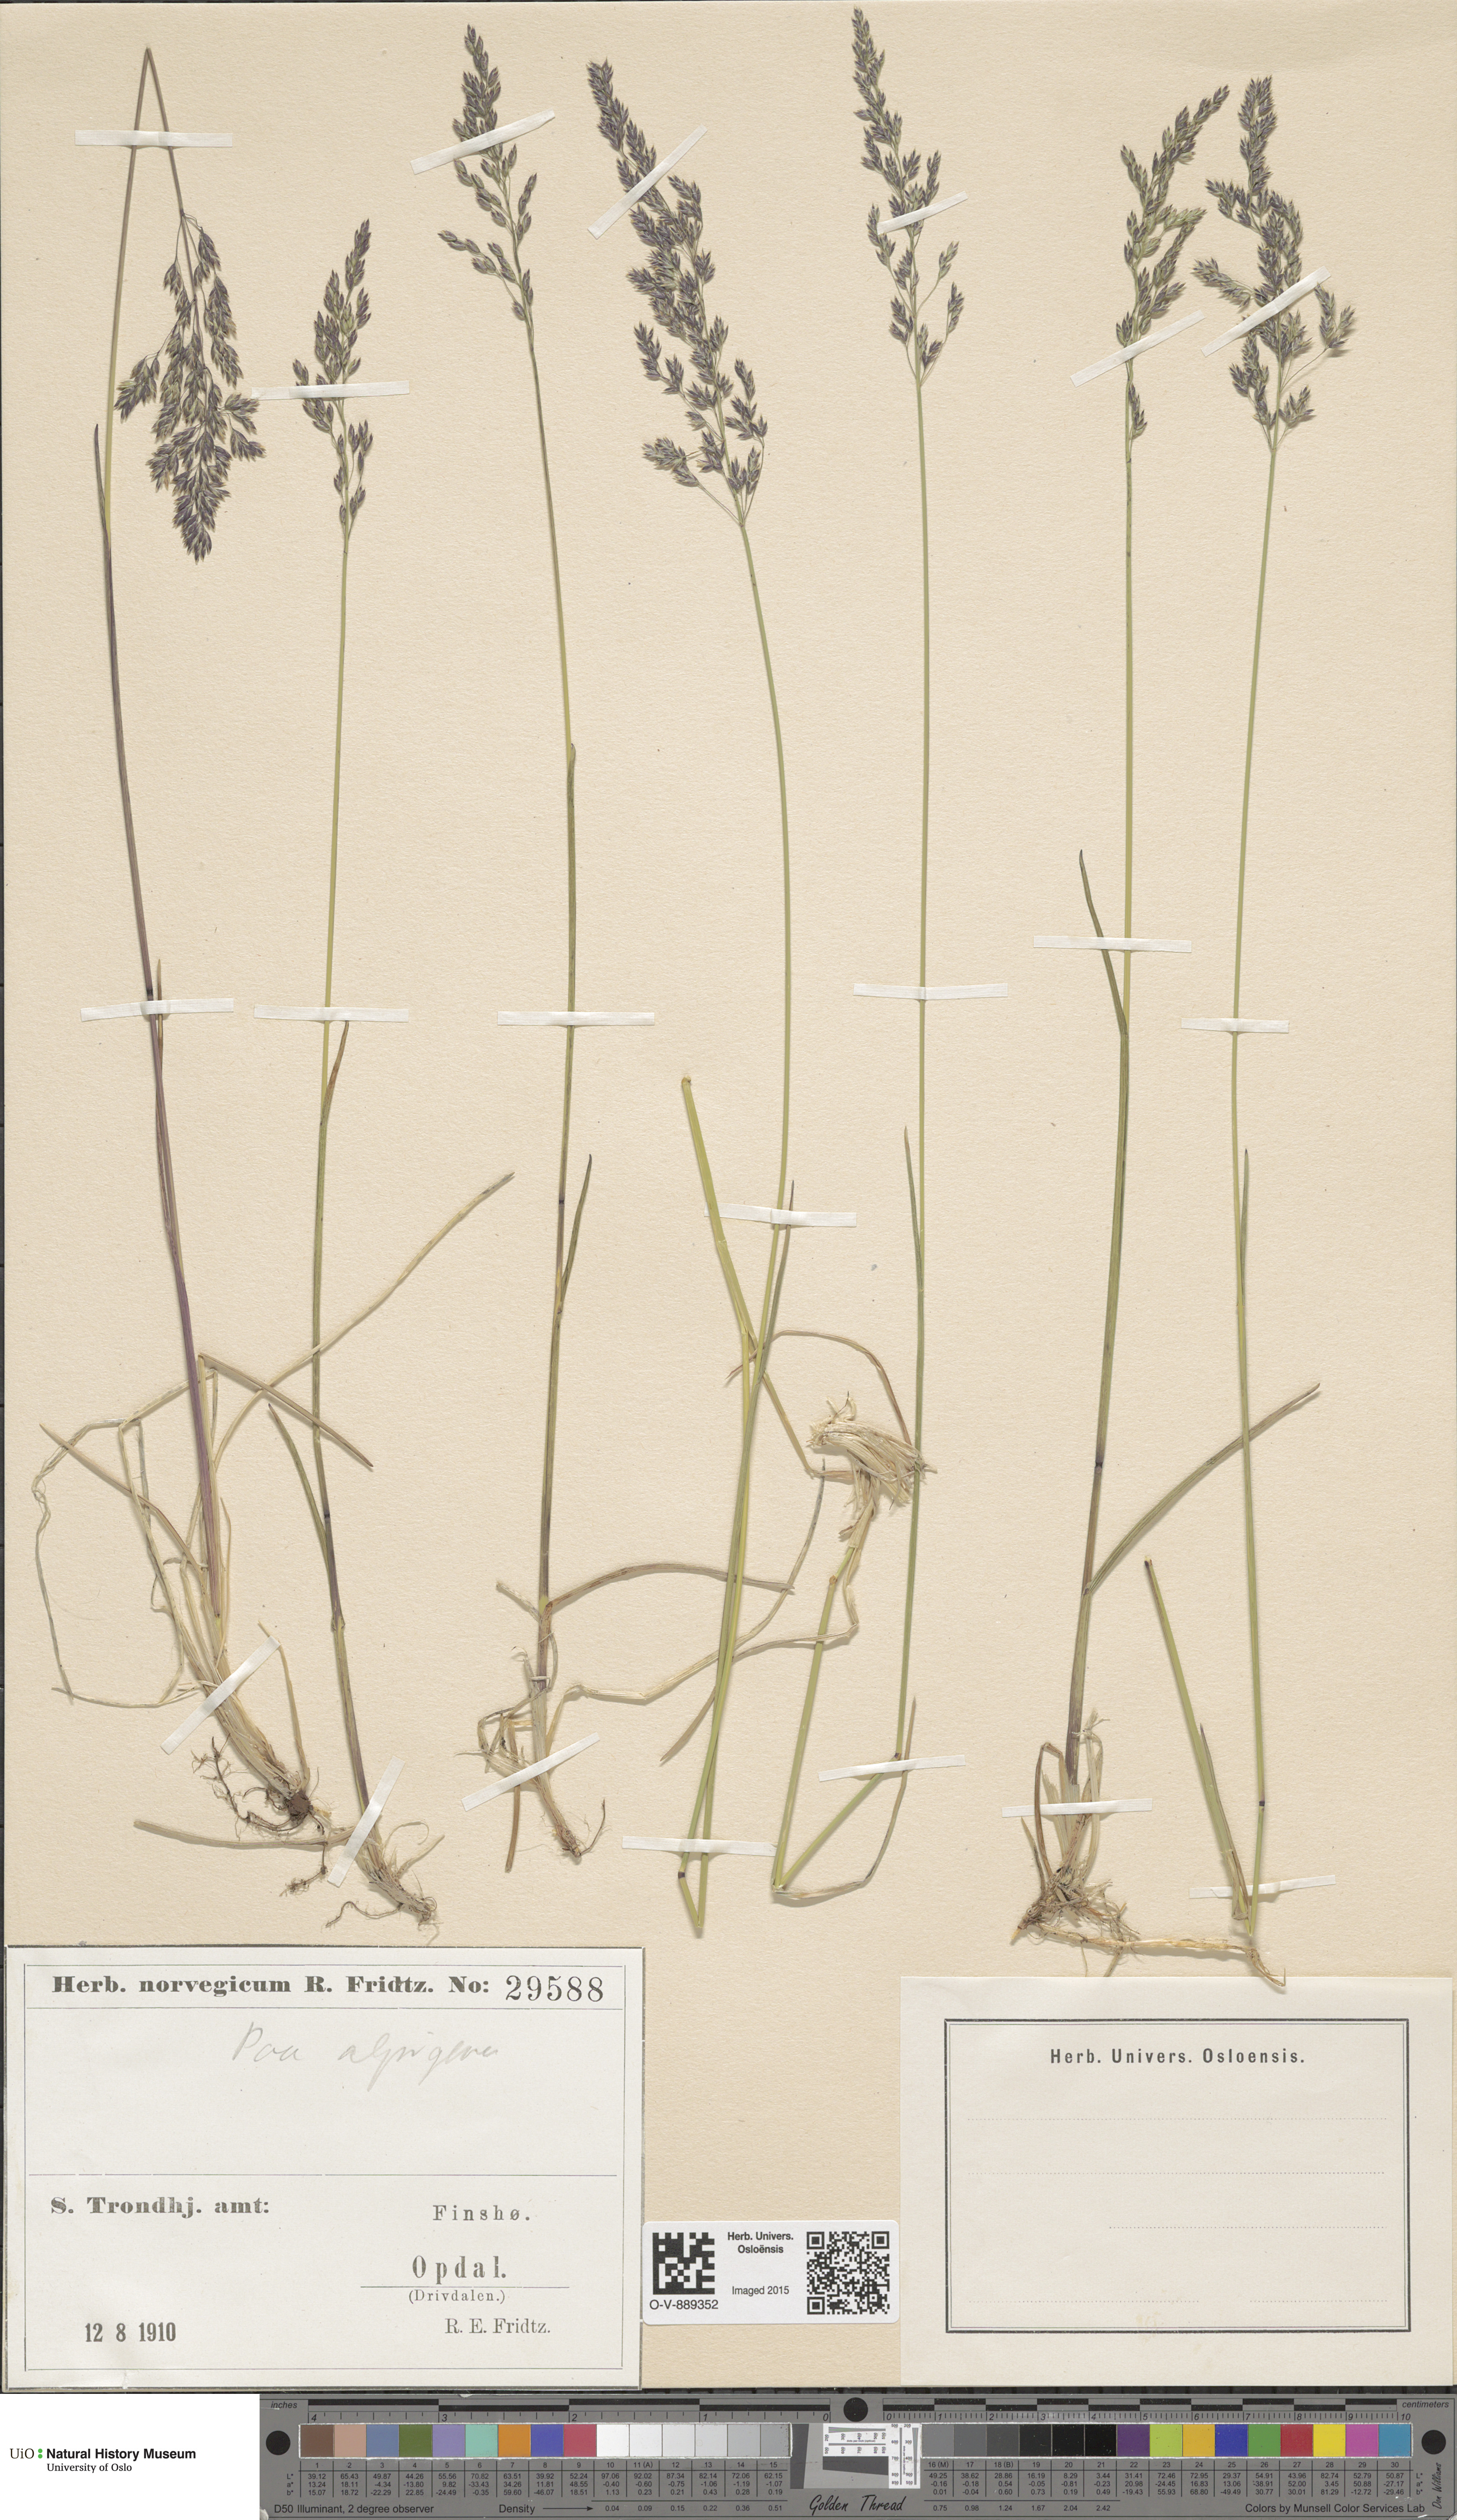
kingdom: Plantae
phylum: Tracheophyta
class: Liliopsida
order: Poales
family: Poaceae
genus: Poa
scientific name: Poa alpigena
